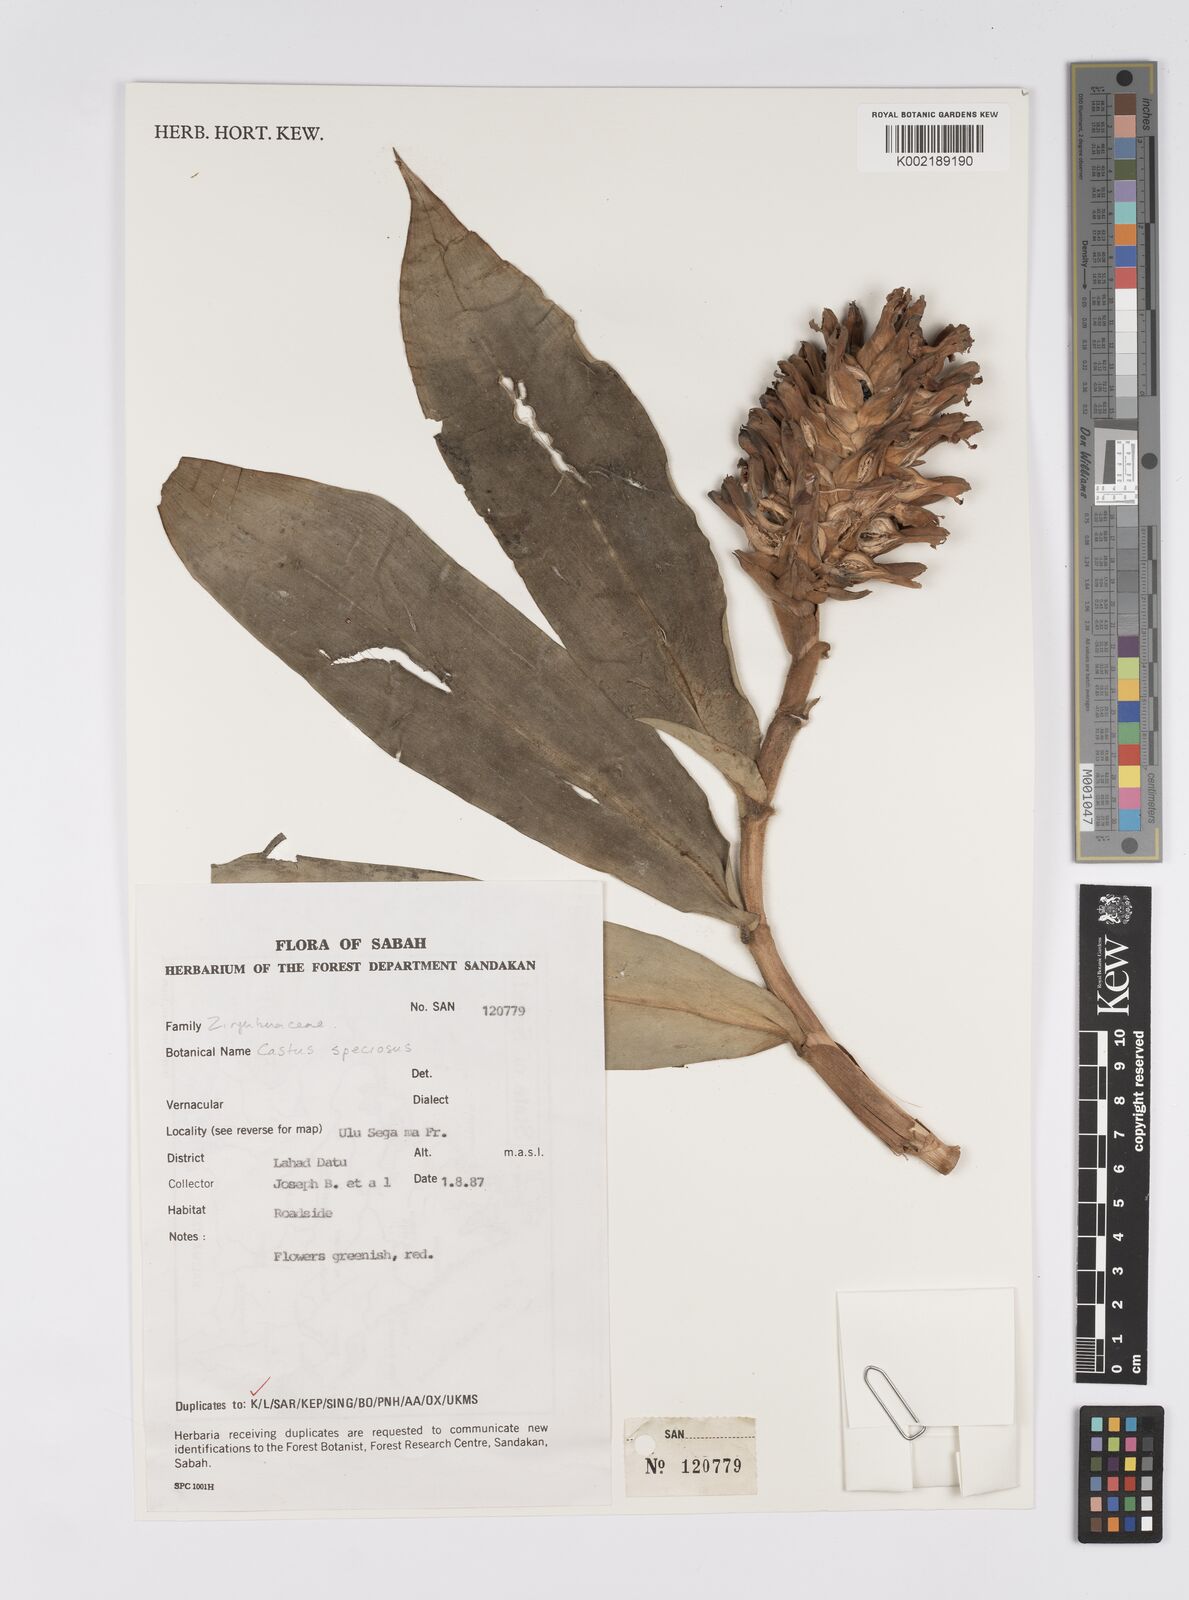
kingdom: Plantae
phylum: Tracheophyta
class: Liliopsida
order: Zingiberales
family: Costaceae
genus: Hellenia
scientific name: Hellenia speciosa
